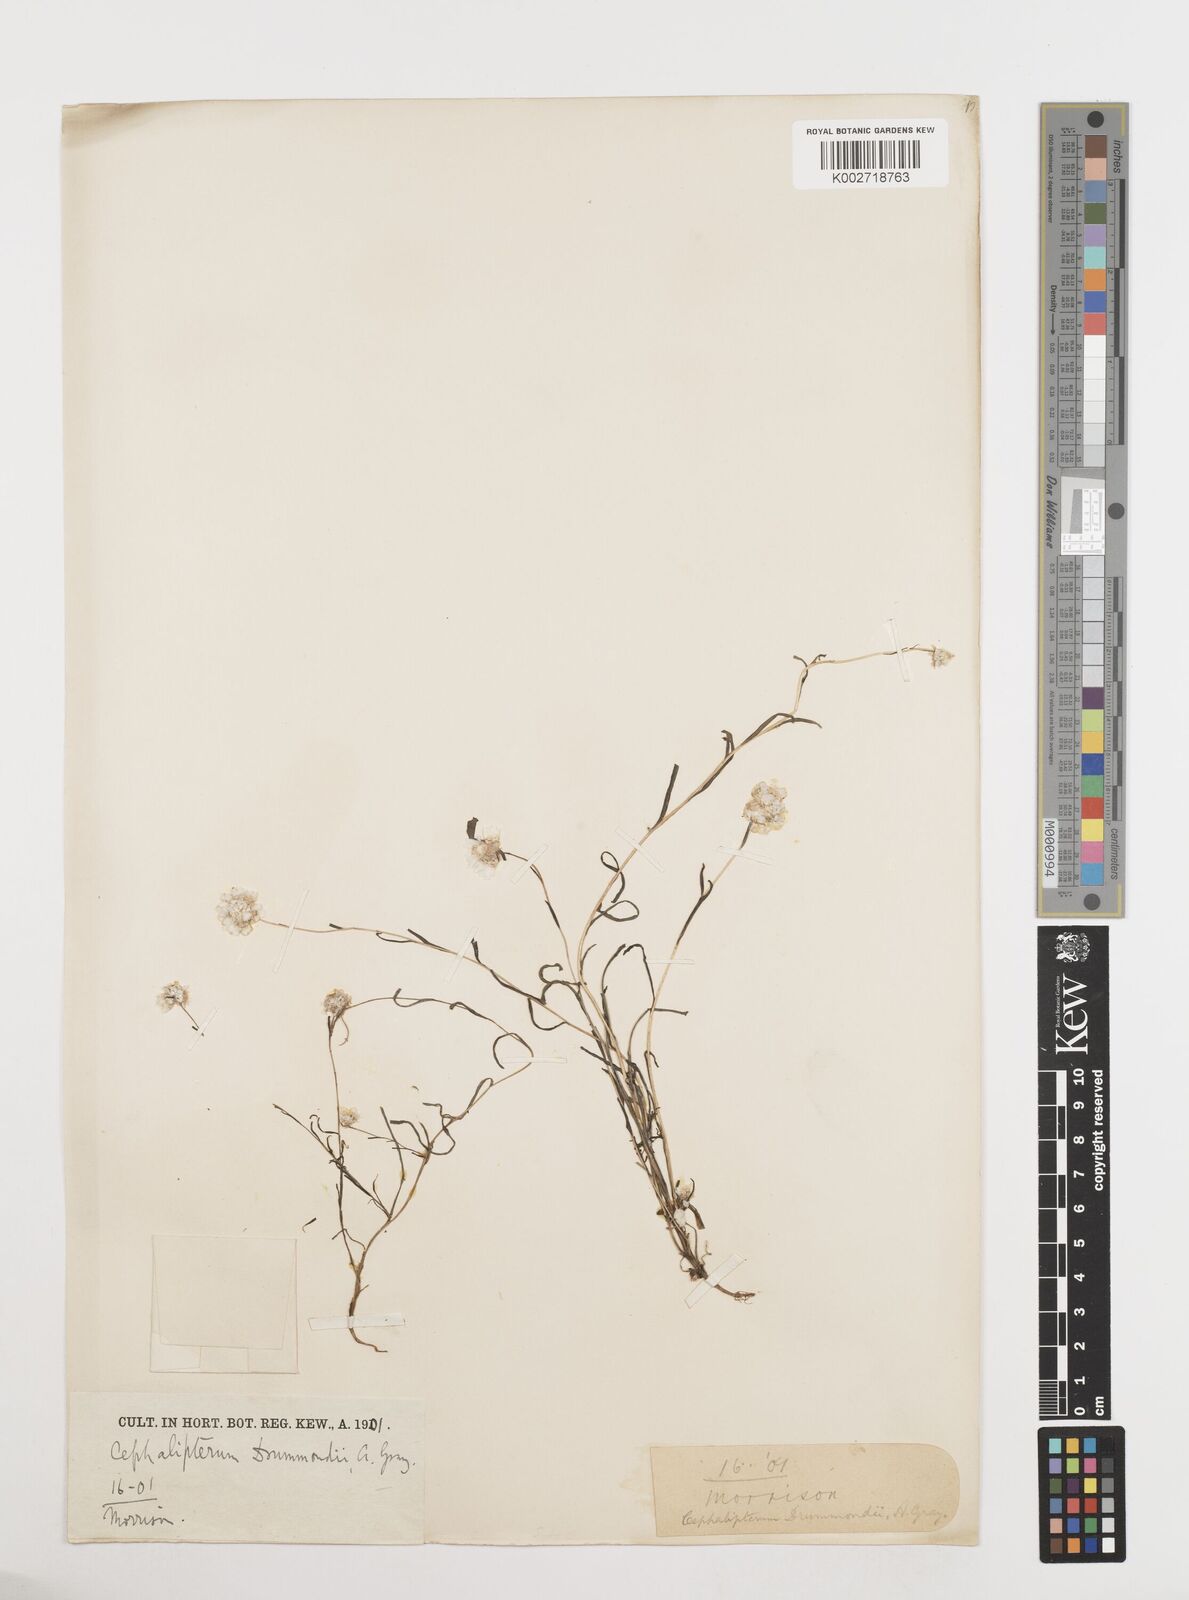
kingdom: Plantae
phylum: Tracheophyta
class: Magnoliopsida
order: Asterales
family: Asteraceae
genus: Cephalipterum
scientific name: Cephalipterum drummondii
